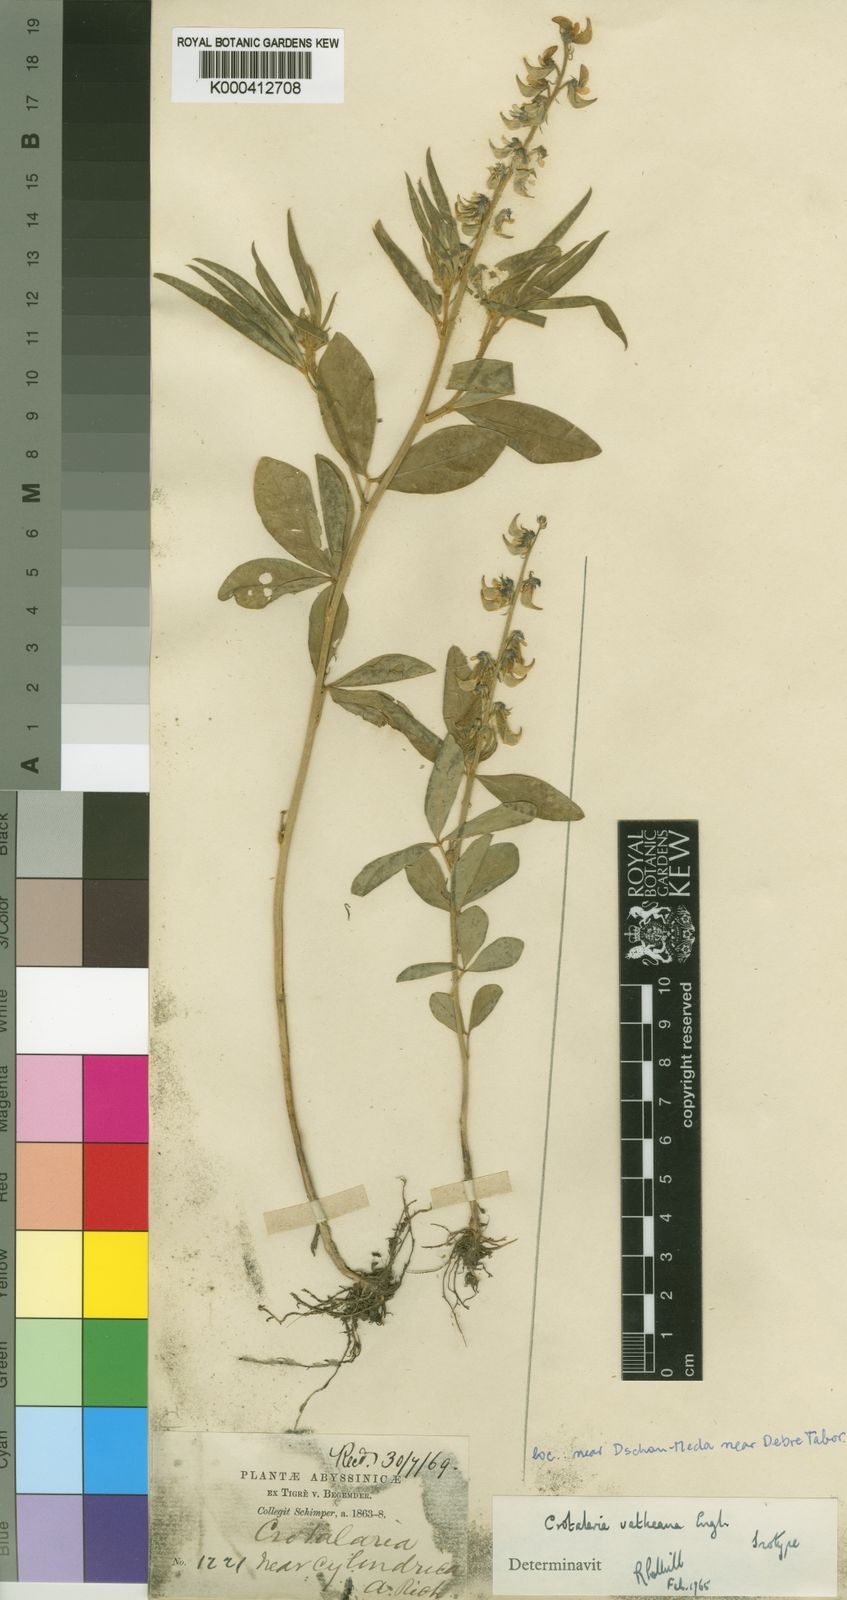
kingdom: Plantae
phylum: Tracheophyta
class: Magnoliopsida
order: Fabales
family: Fabaceae
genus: Crotalaria
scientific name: Crotalaria vatkeana
